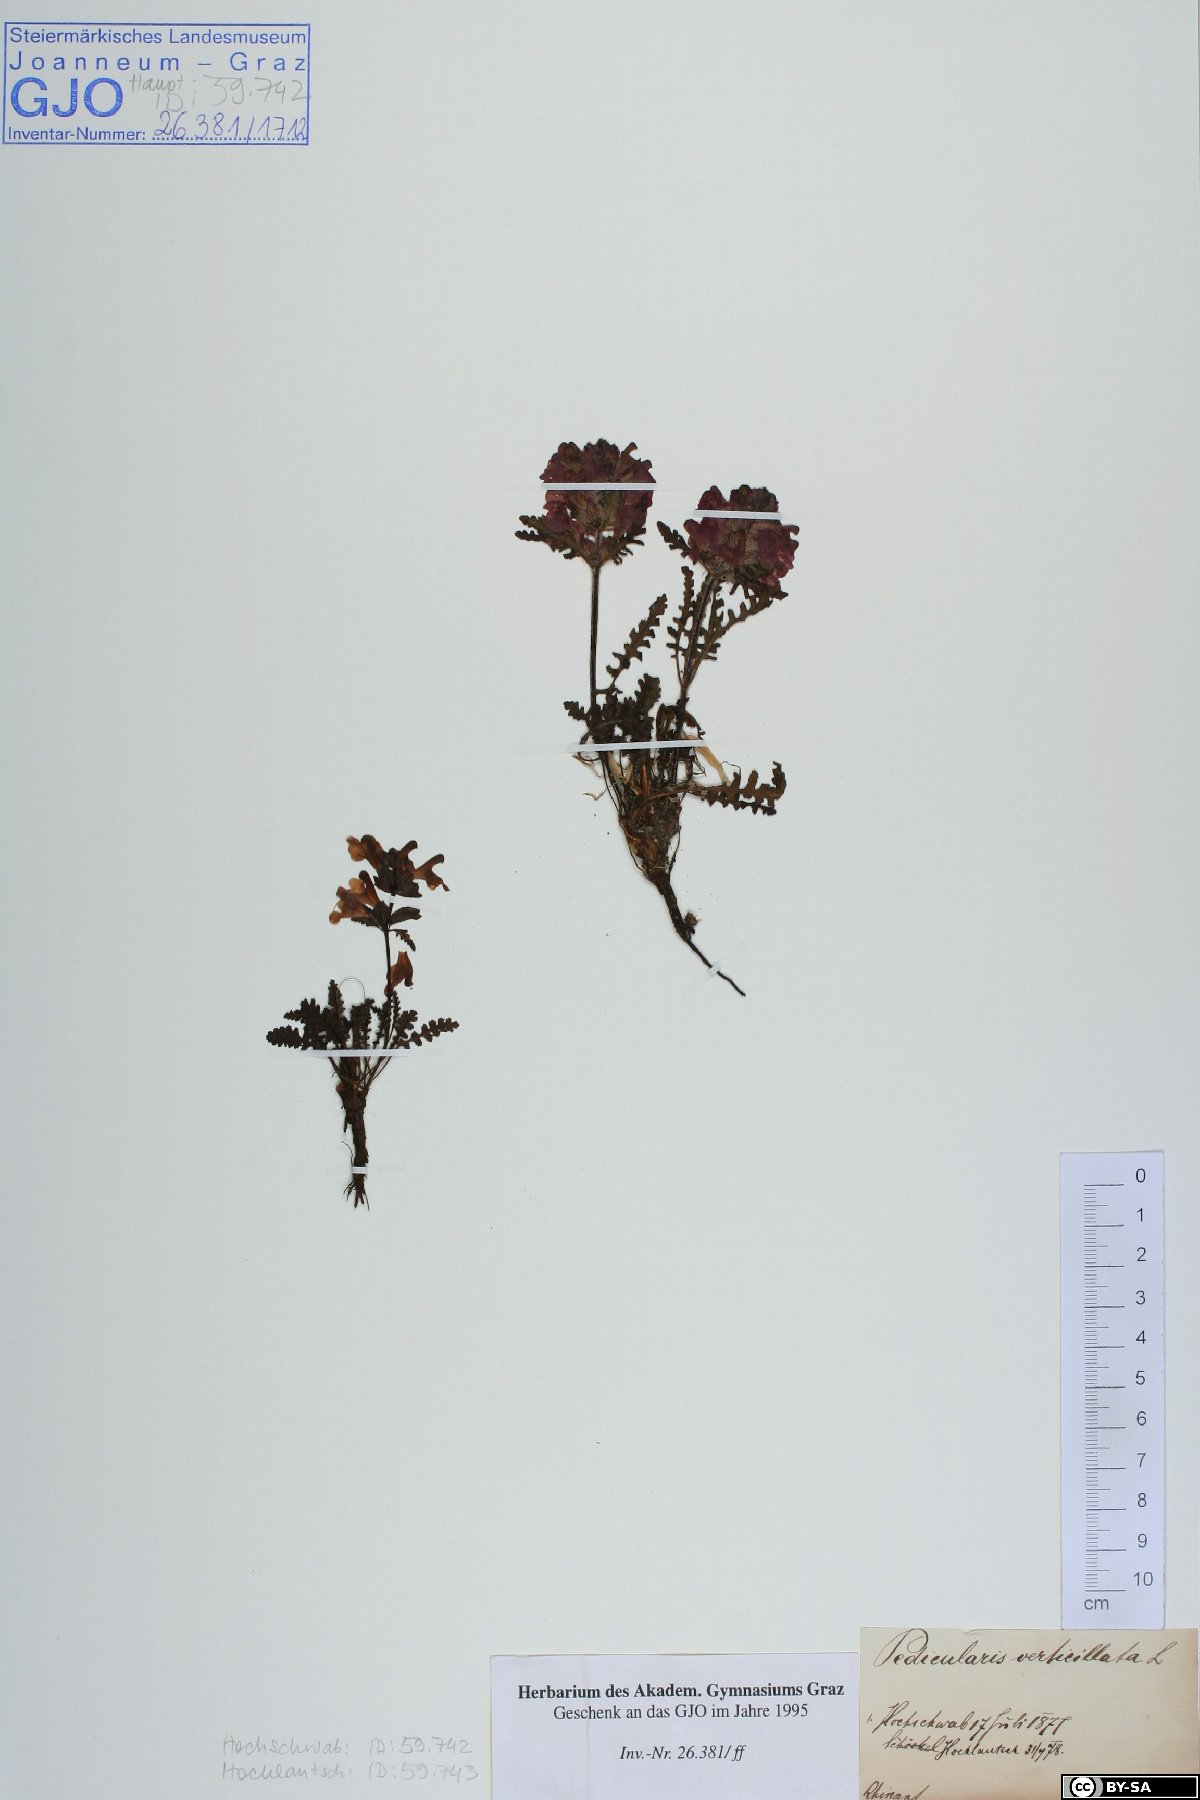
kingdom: Plantae
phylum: Tracheophyta
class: Magnoliopsida
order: Lamiales
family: Orobanchaceae
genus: Pedicularis
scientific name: Pedicularis verticillata
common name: Whorled lousewort
